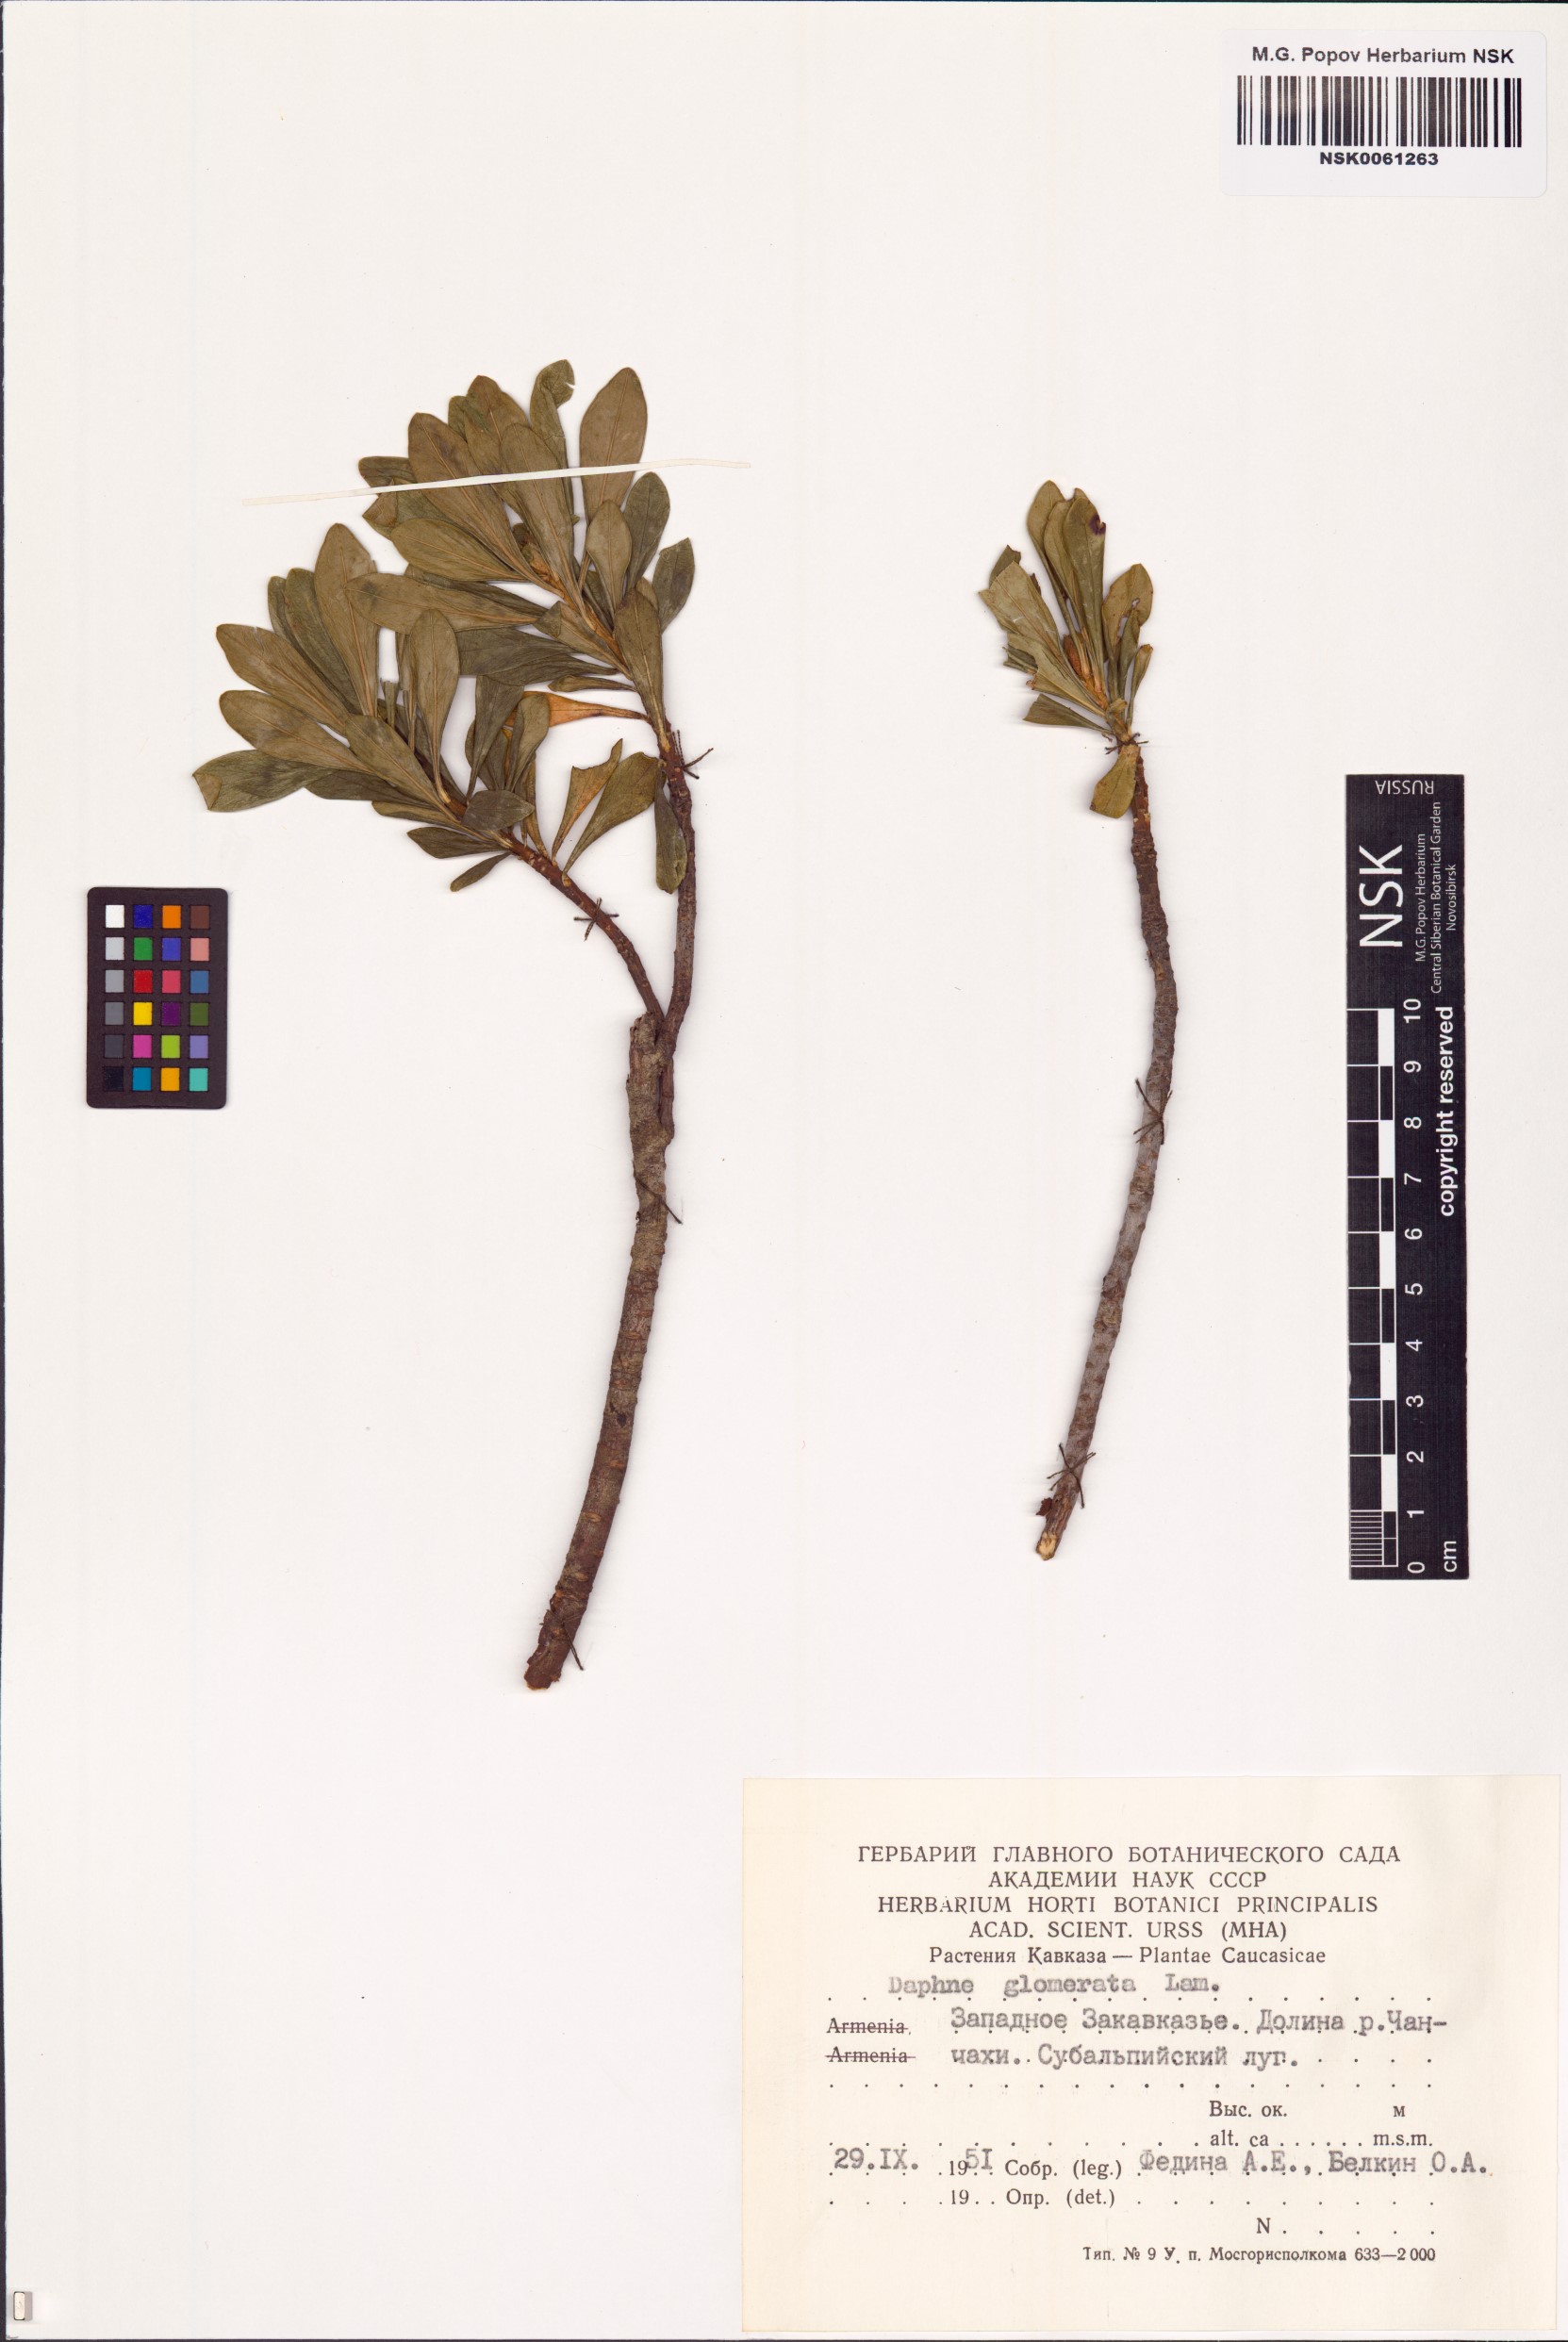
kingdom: Plantae
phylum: Tracheophyta
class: Magnoliopsida
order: Malvales
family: Thymelaeaceae
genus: Daphne
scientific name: Daphne glomerata
